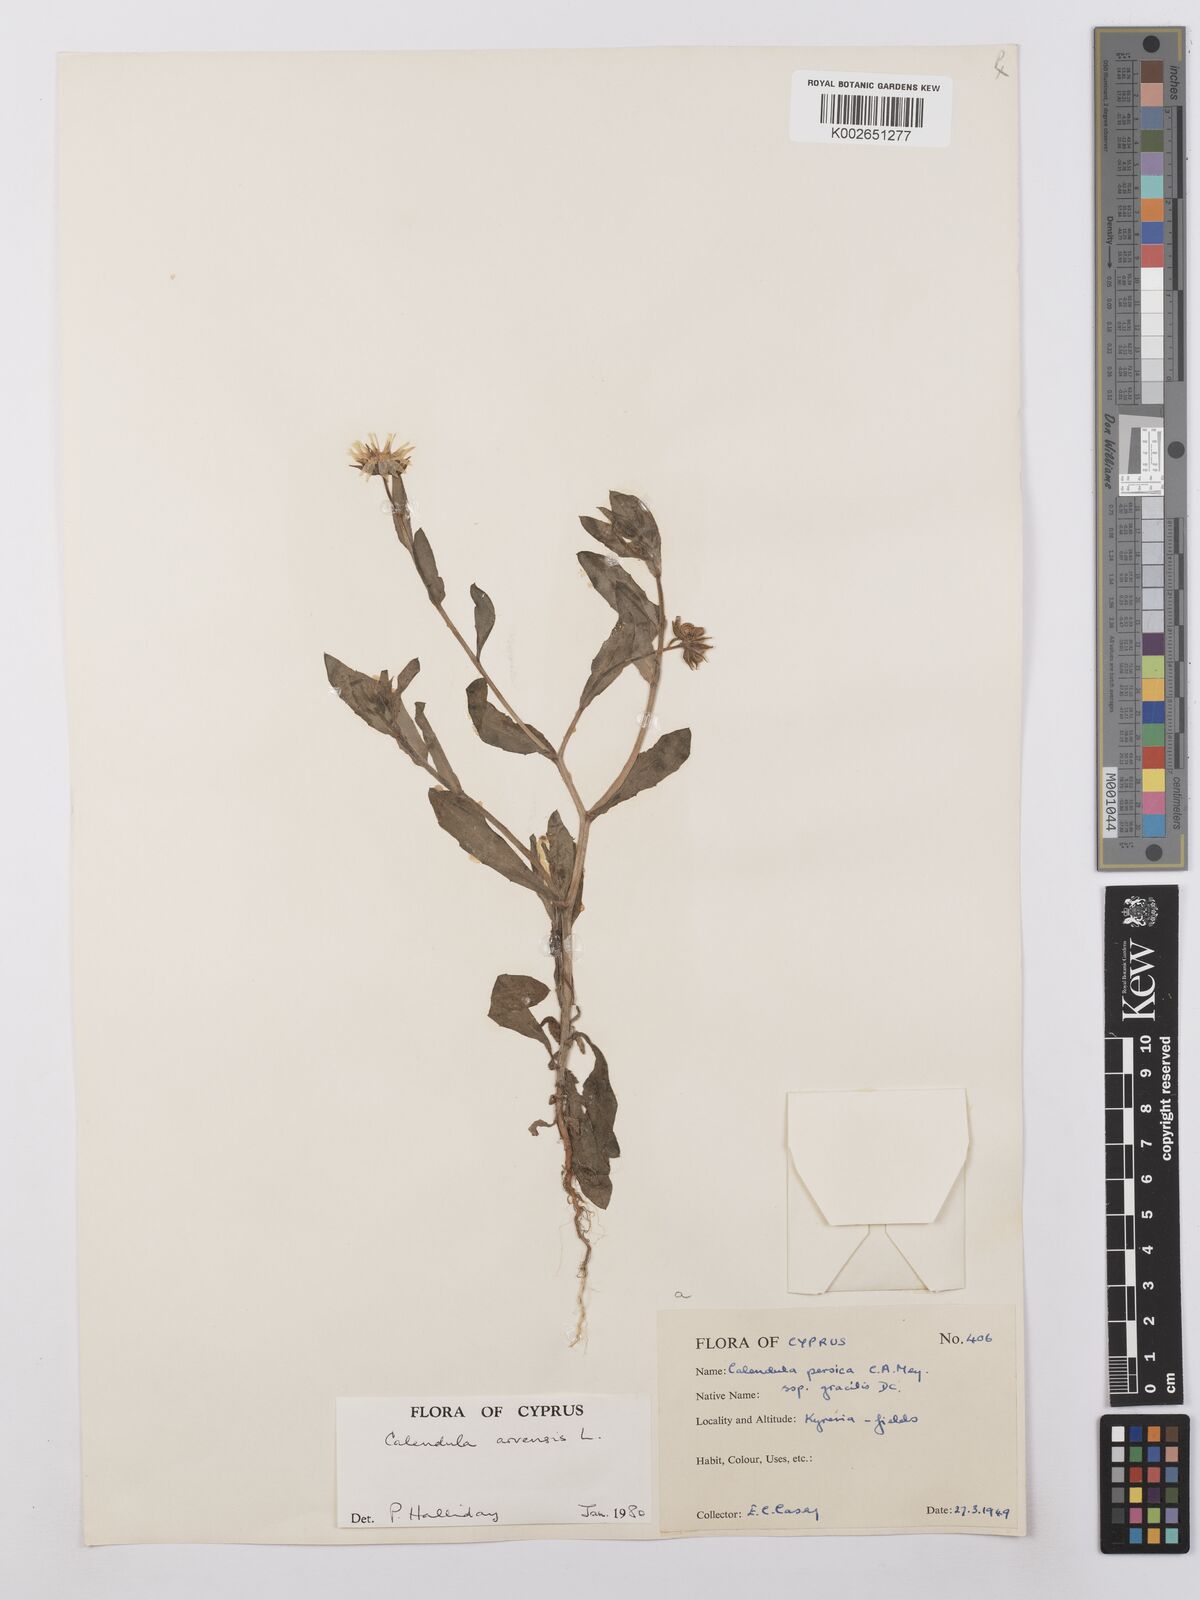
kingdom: Plantae
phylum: Tracheophyta
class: Magnoliopsida
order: Asterales
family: Asteraceae
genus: Calendula
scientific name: Calendula arvensis
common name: Field marigold
